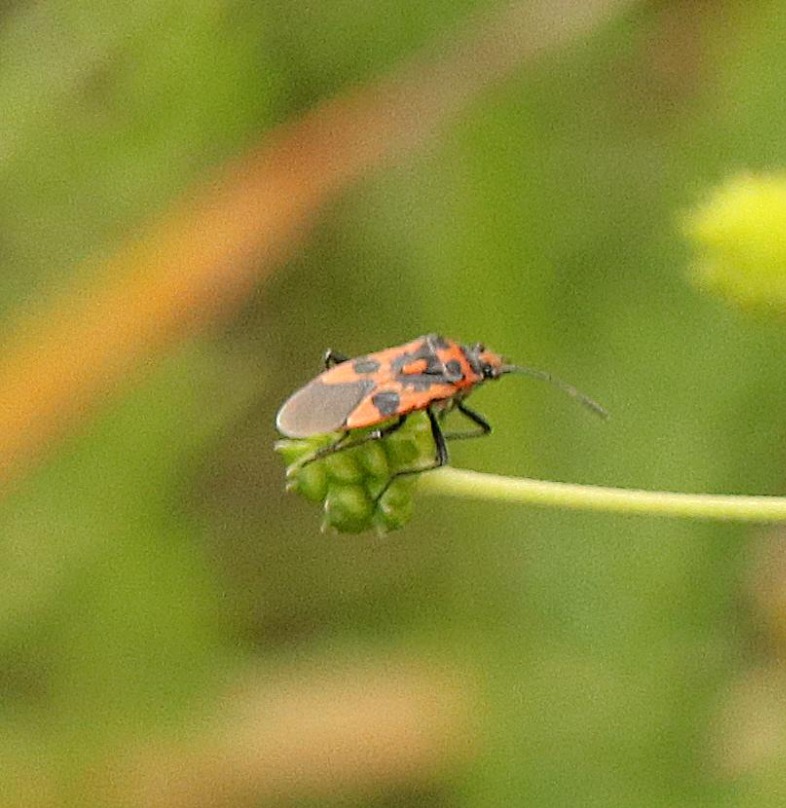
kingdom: Animalia
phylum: Arthropoda
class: Insecta
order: Hemiptera
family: Rhopalidae
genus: Corizus
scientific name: Corizus hyoscyami
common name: Rød kanttæge
